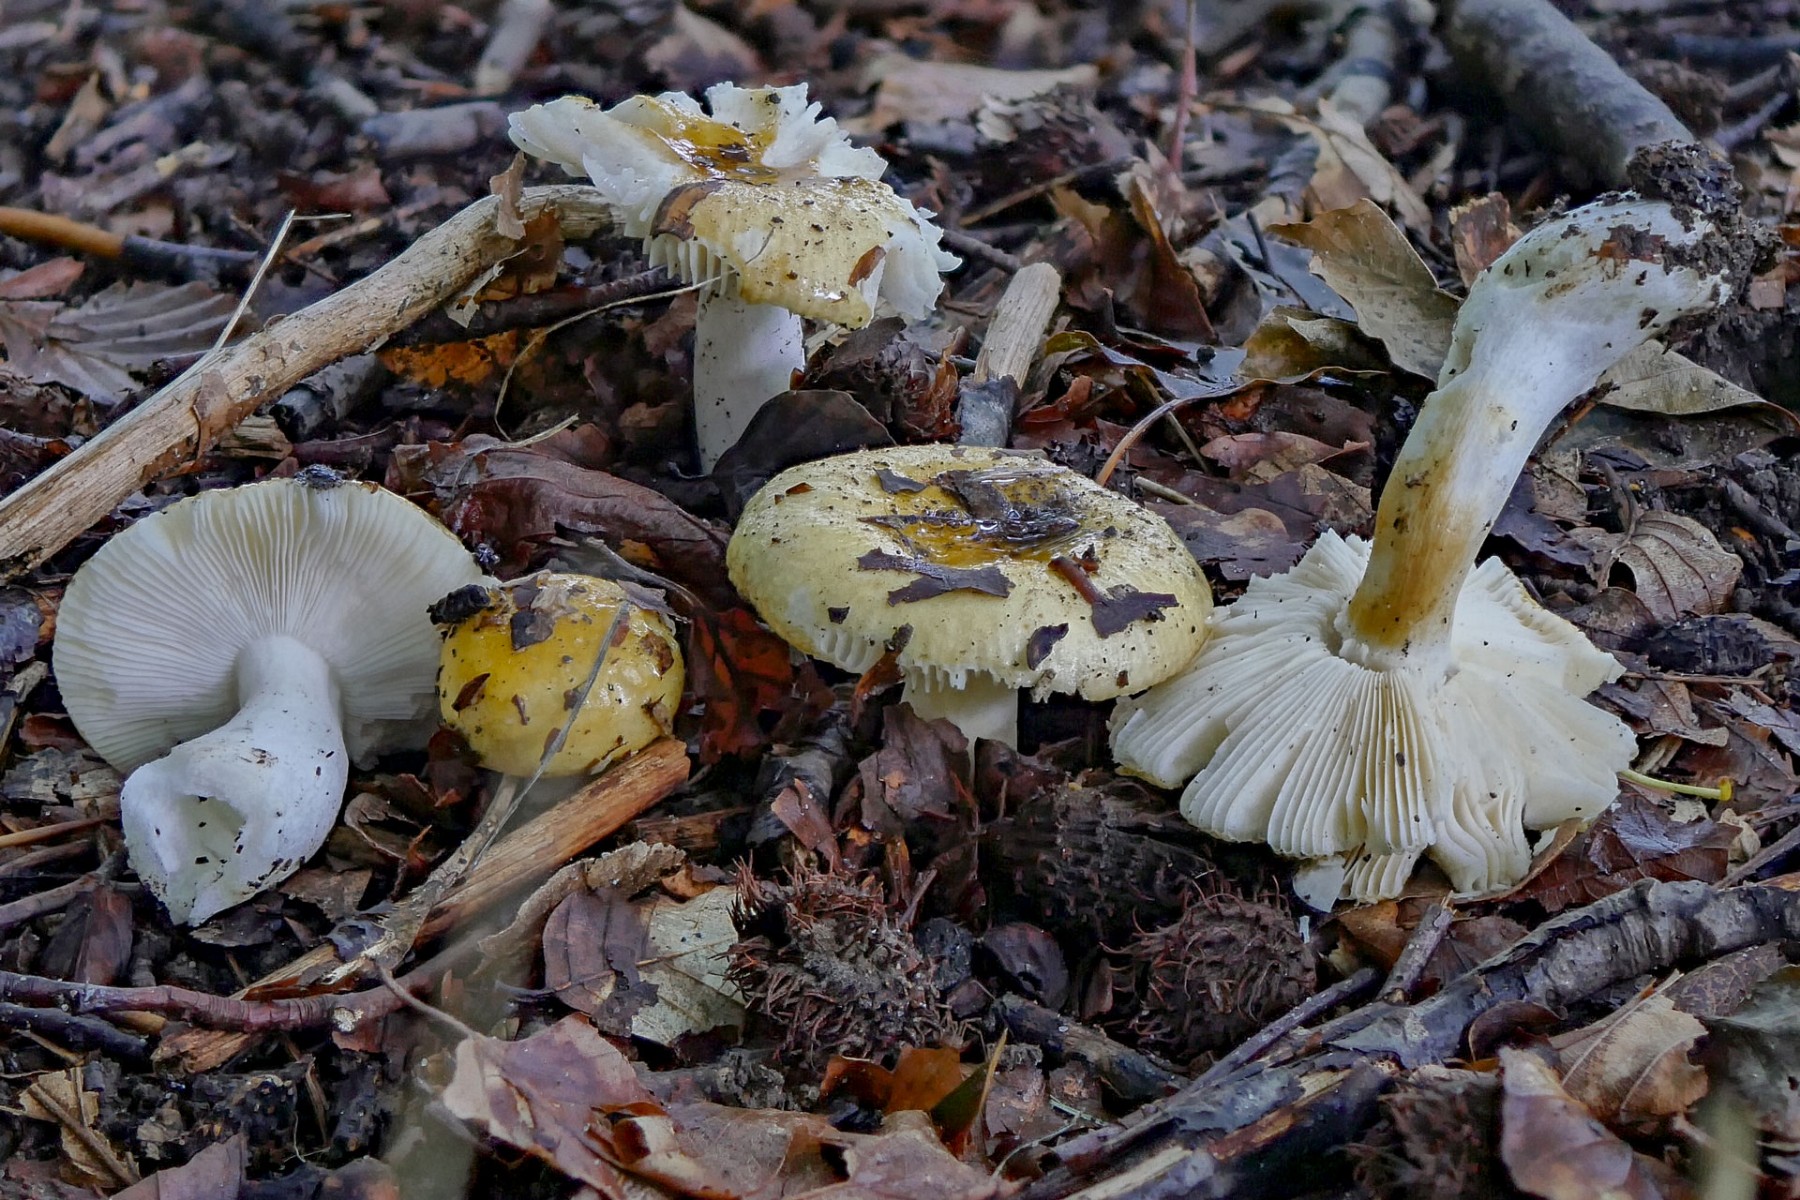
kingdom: Fungi
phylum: Basidiomycota
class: Agaricomycetes
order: Russulales
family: Russulaceae
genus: Russula
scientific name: Russula solaris
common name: sol-skørhat
